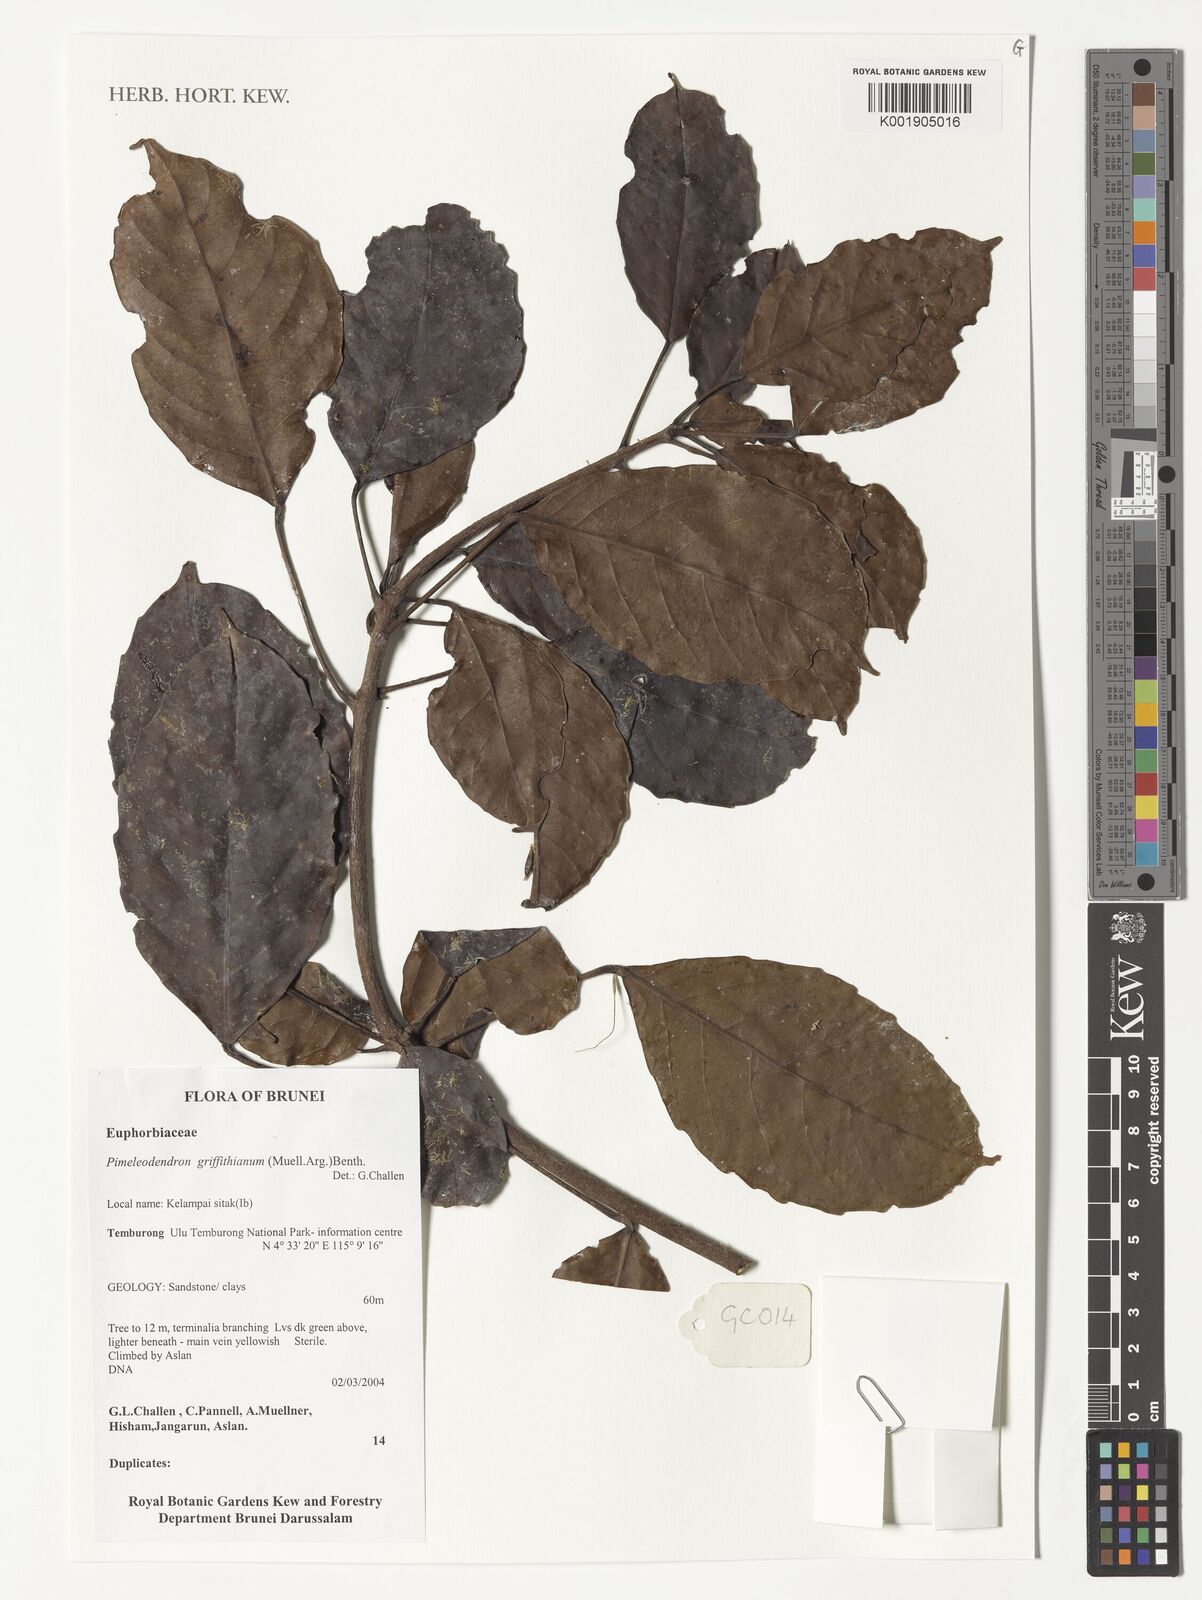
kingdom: Plantae
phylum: Tracheophyta
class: Magnoliopsida
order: Malpighiales
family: Euphorbiaceae
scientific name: Euphorbiaceae
